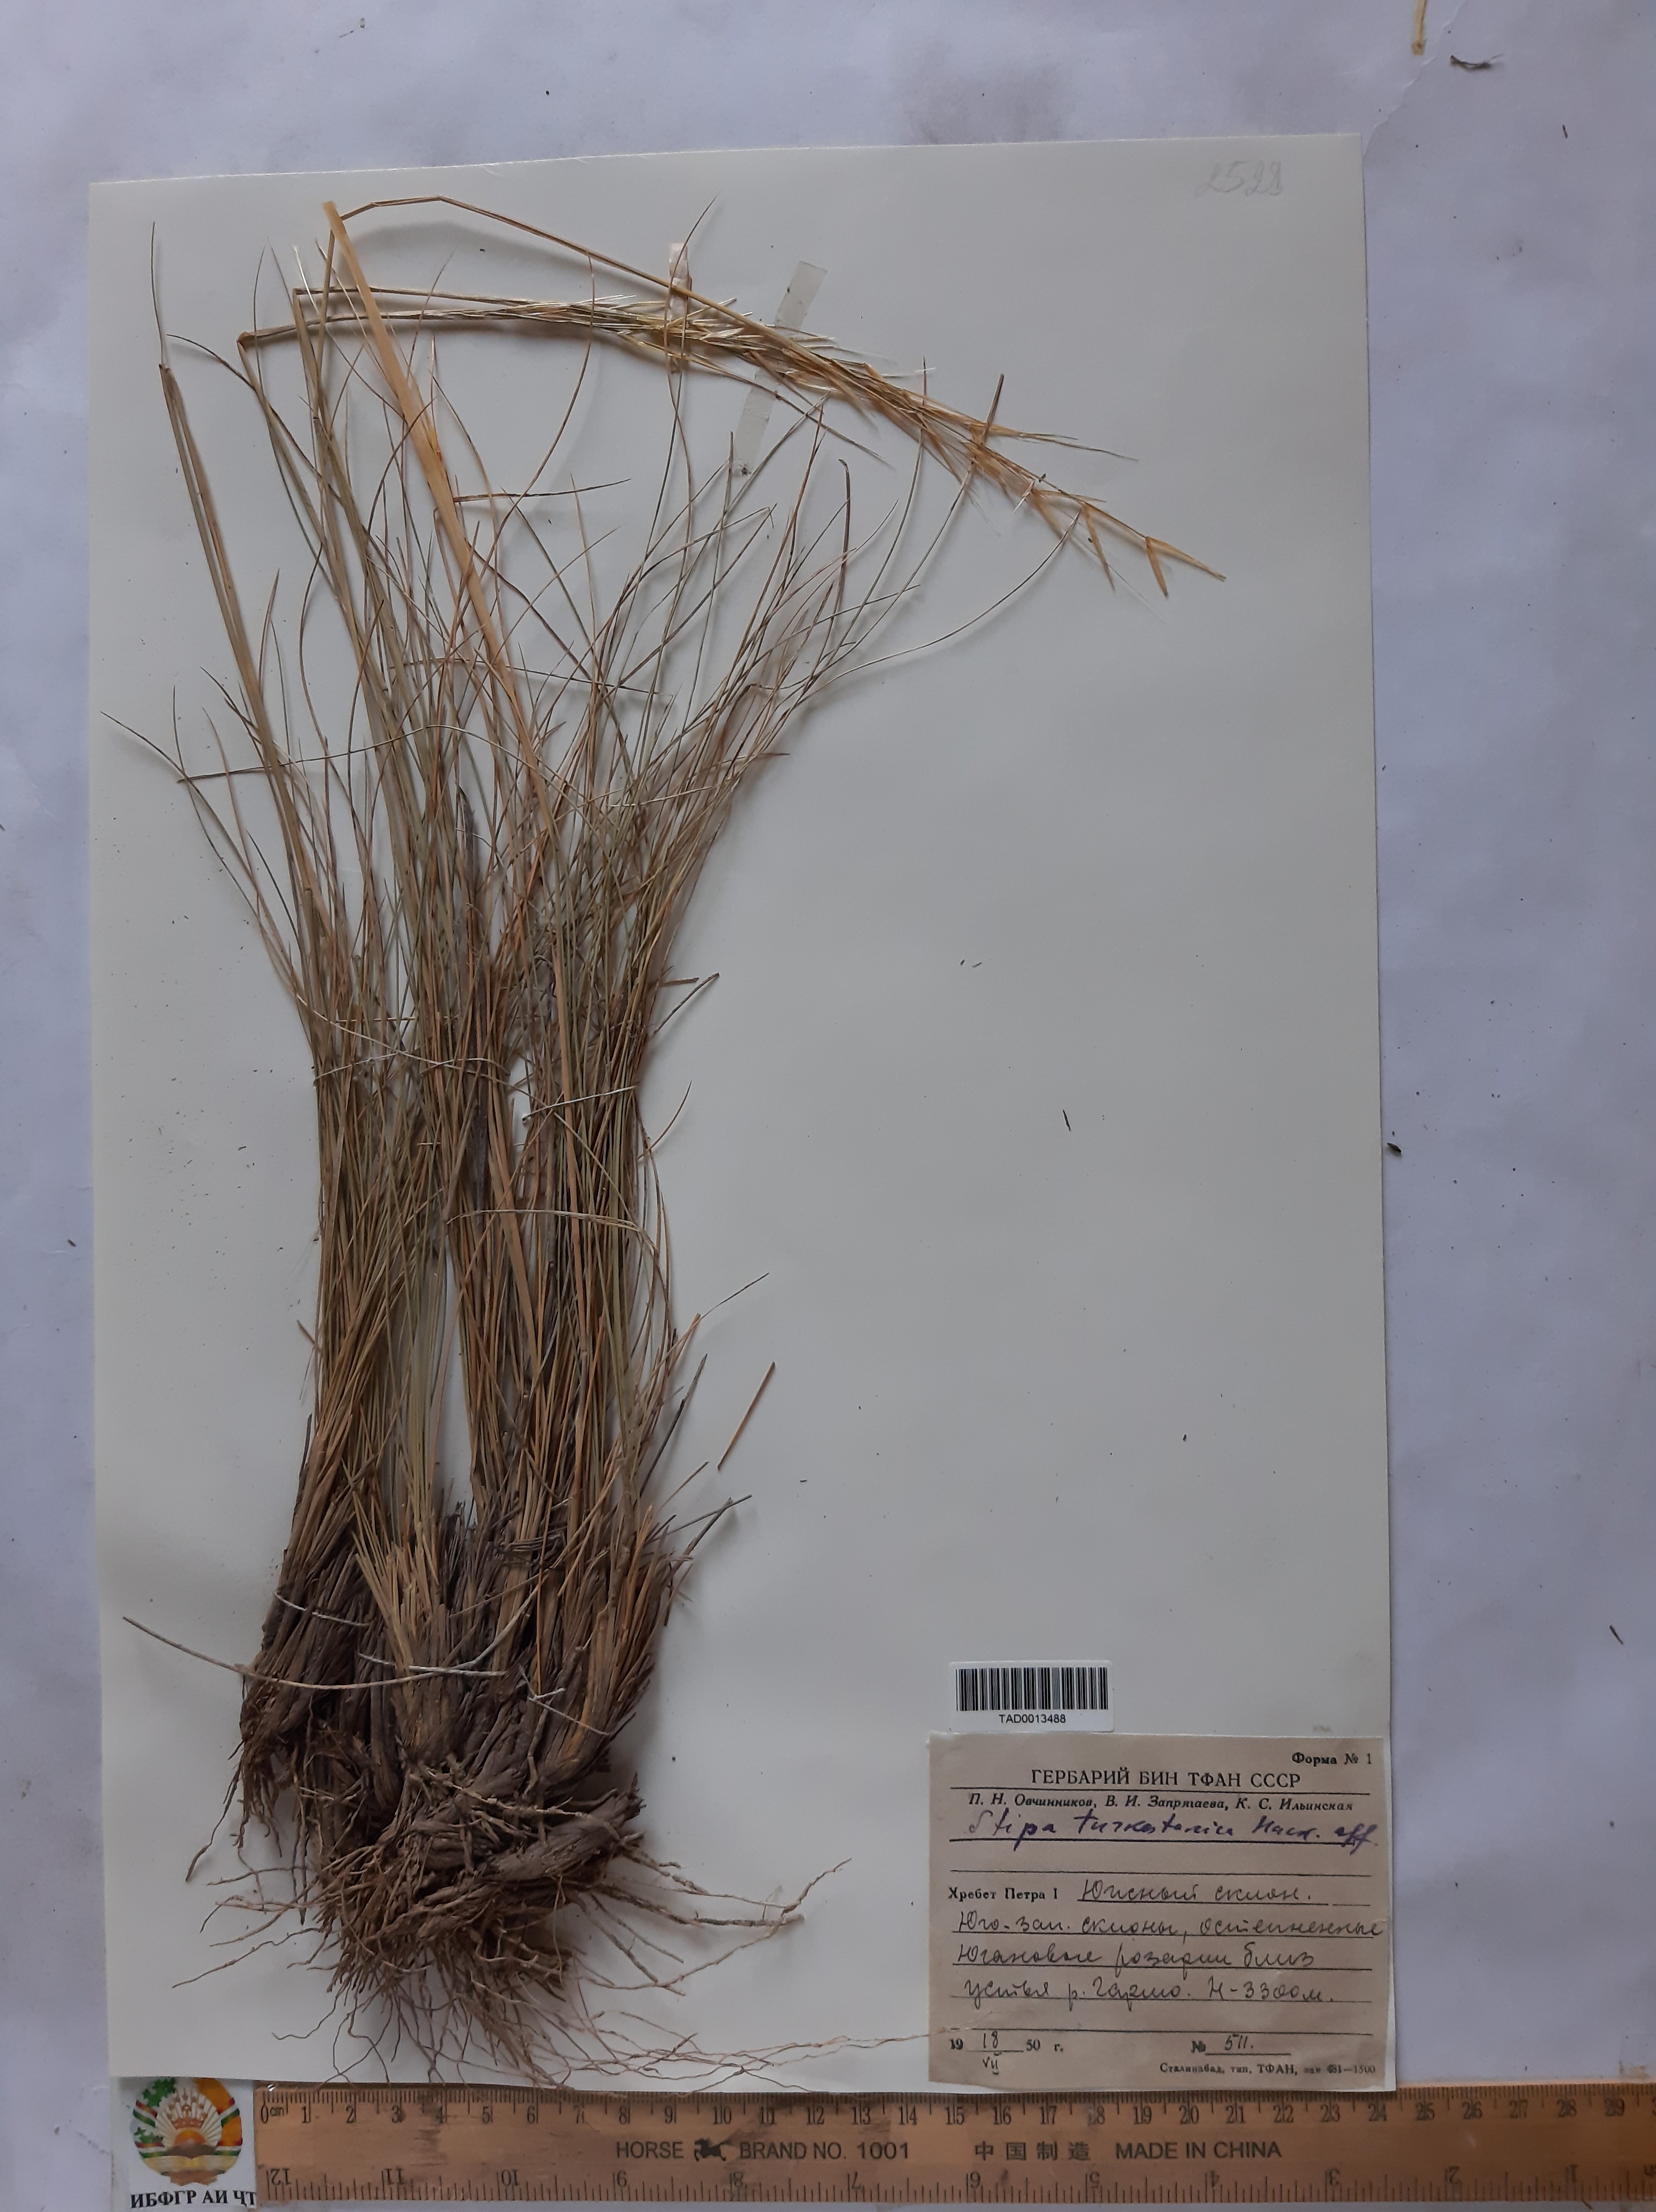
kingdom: Plantae
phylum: Tracheophyta
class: Liliopsida
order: Poales
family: Poaceae
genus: Stipa
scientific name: Stipa trichoides
